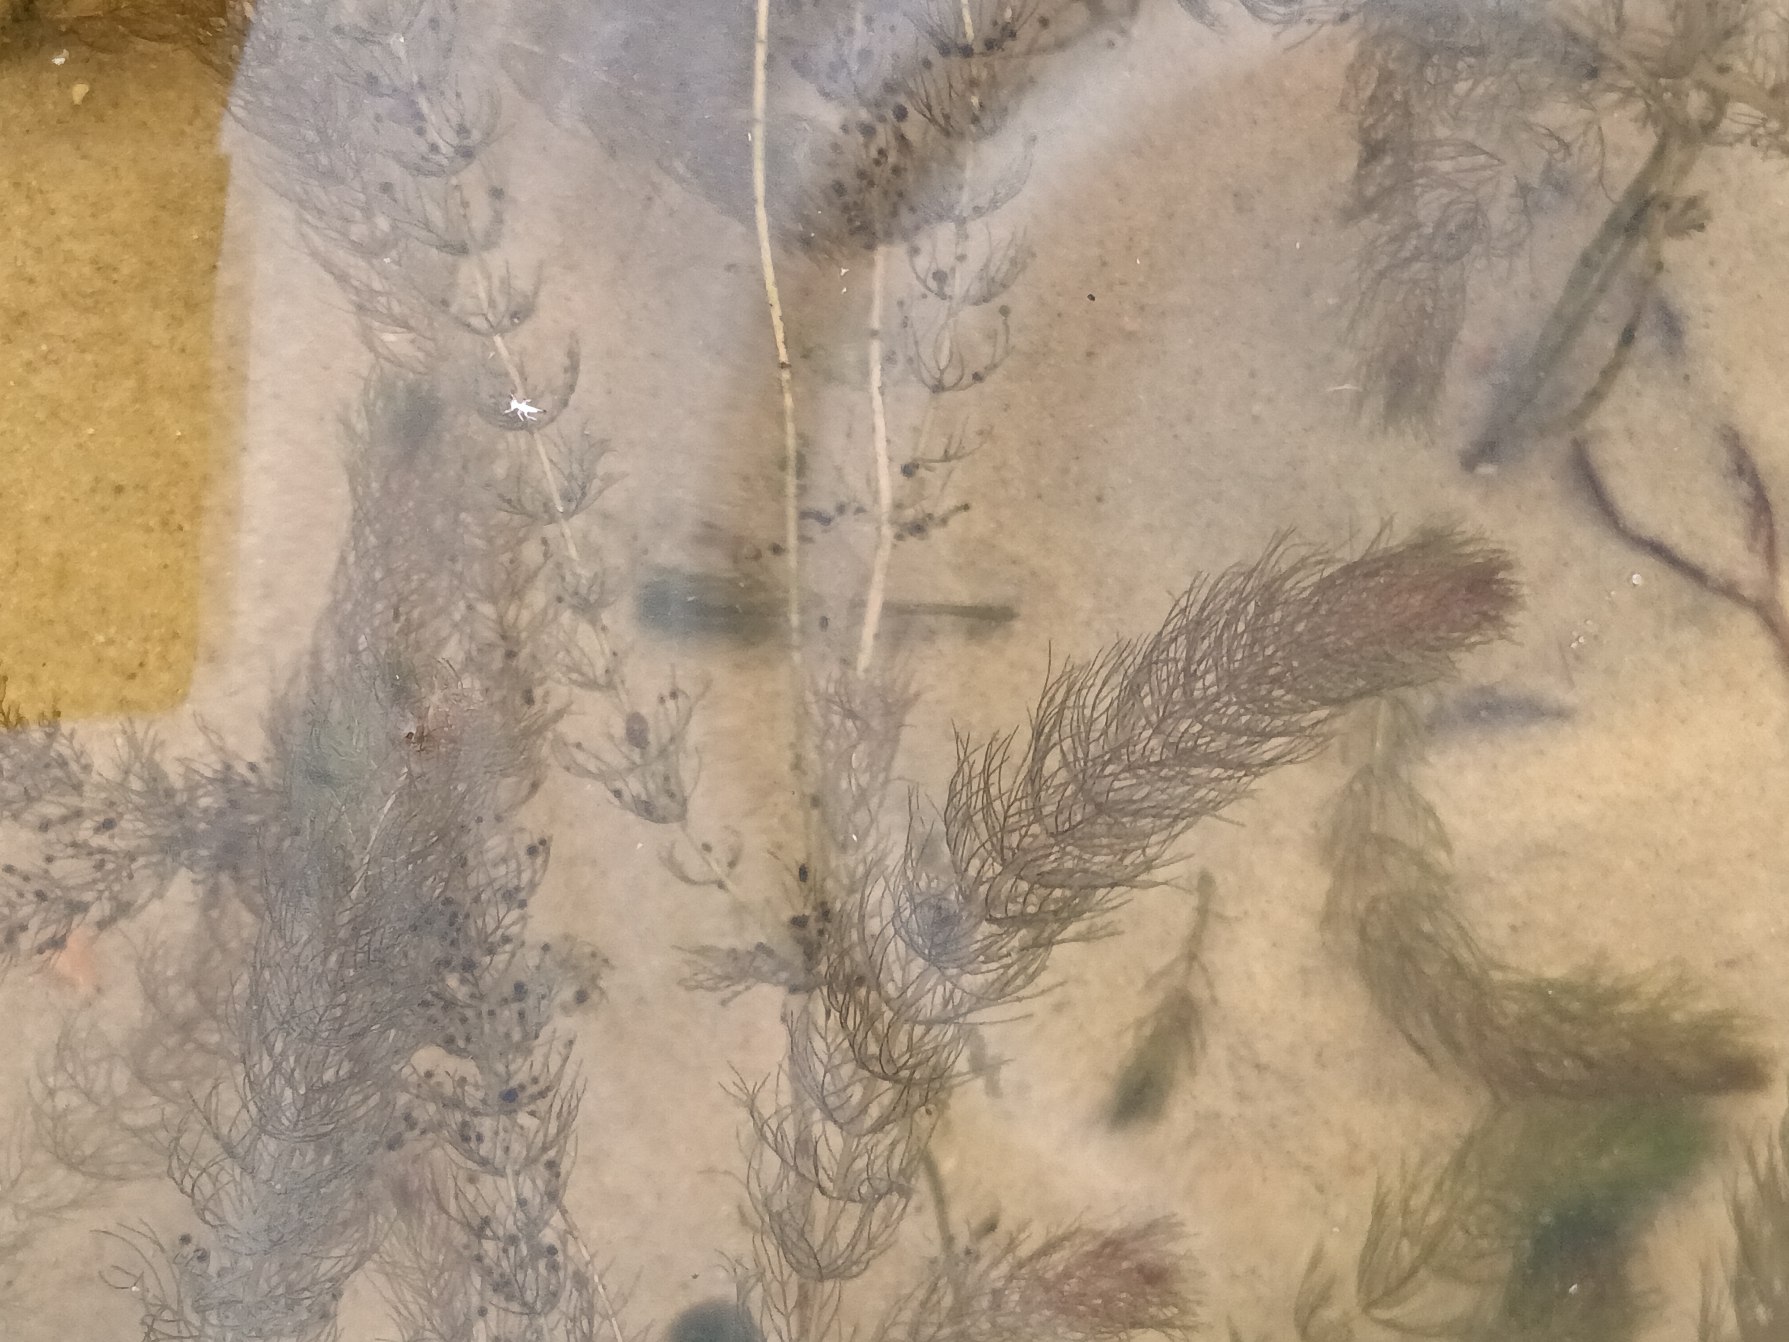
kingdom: Plantae
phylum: Tracheophyta
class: Magnoliopsida
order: Saxifragales
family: Haloragaceae
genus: Myriophyllum
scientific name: Myriophyllum alterniflorum
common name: Hår-tusindblad
